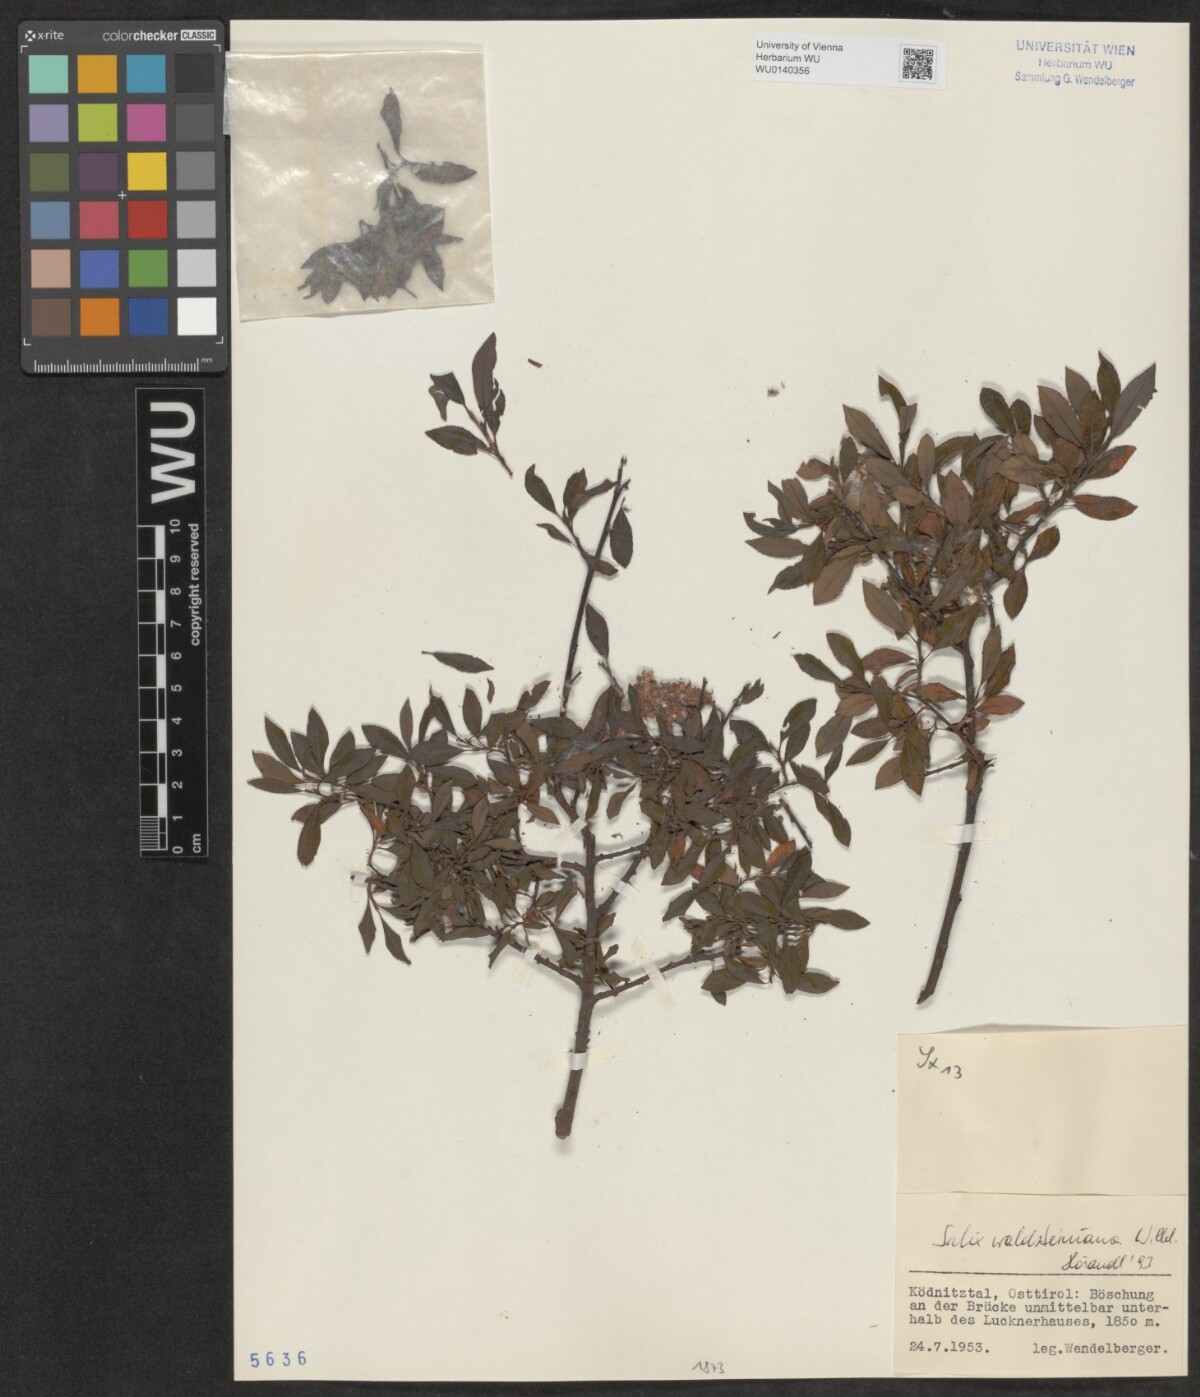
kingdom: Plantae
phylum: Tracheophyta
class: Magnoliopsida
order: Malpighiales
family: Salicaceae
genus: Salix
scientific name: Salix waldsteiniana
